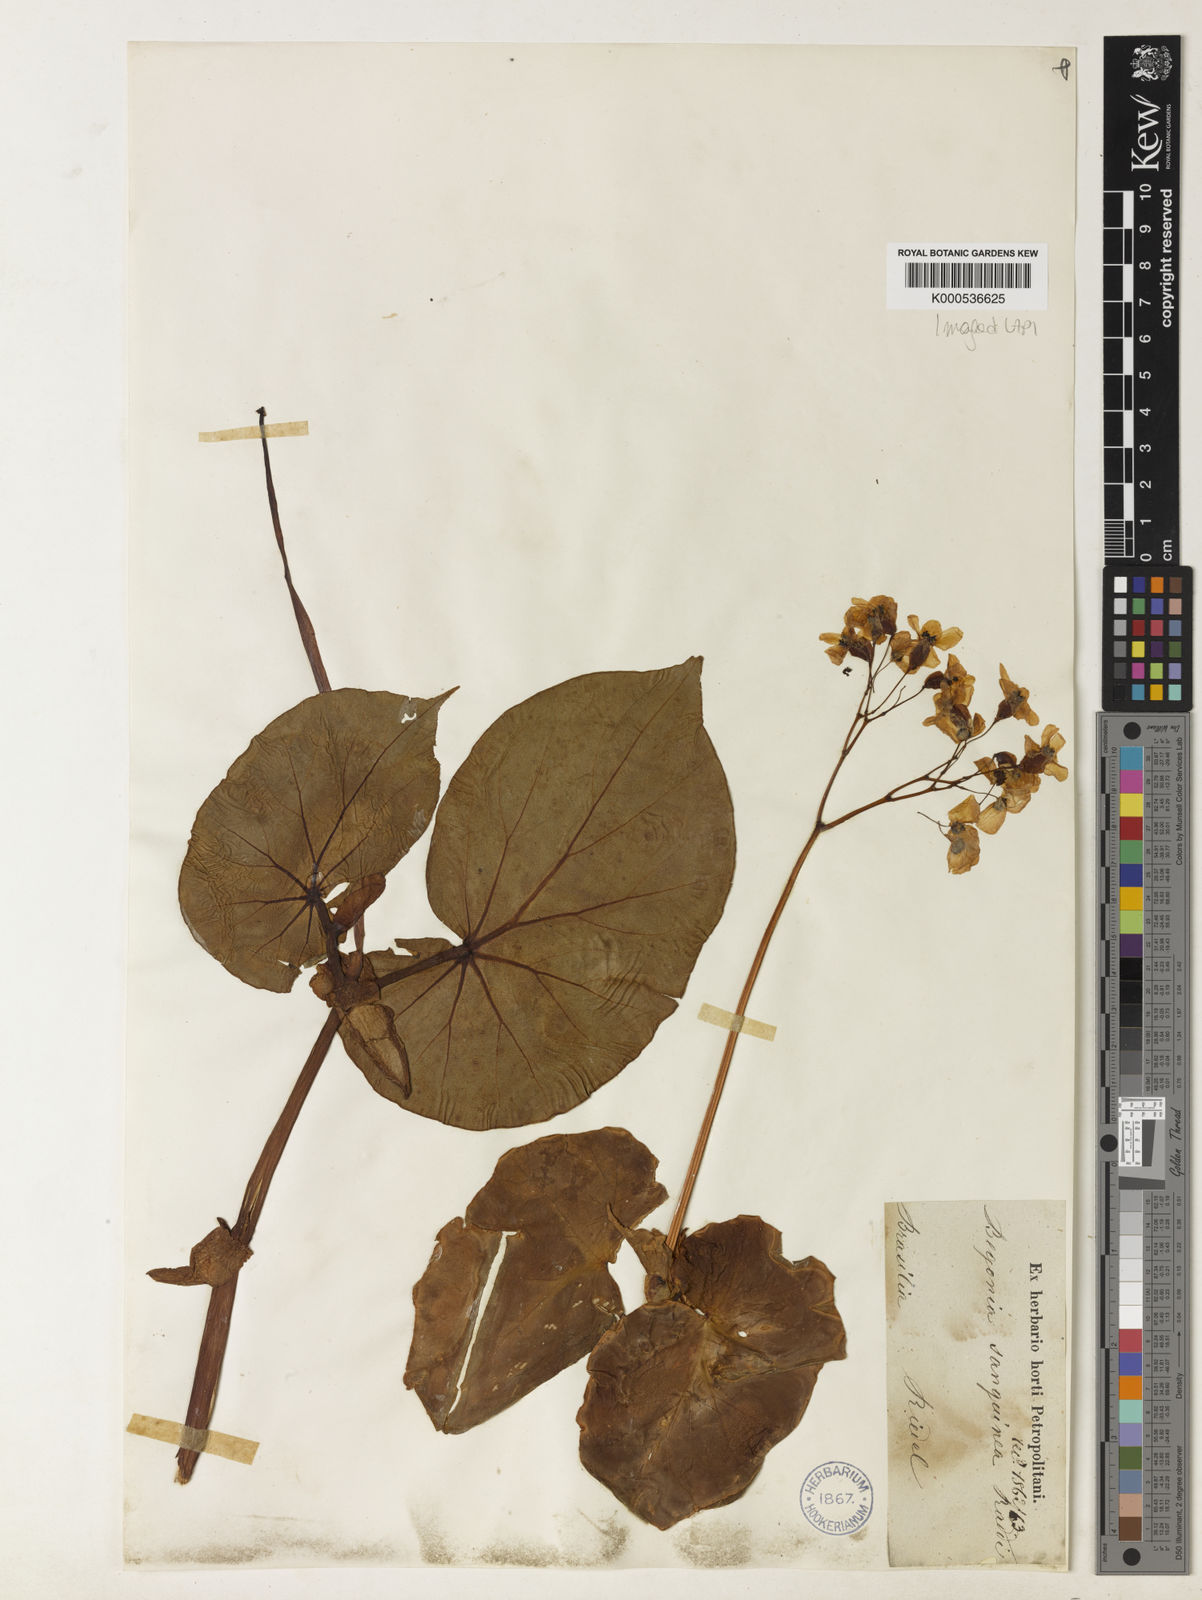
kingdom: Plantae
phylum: Tracheophyta
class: Magnoliopsida
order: Cucurbitales
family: Begoniaceae
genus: Begonia
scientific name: Begonia sanguinea
